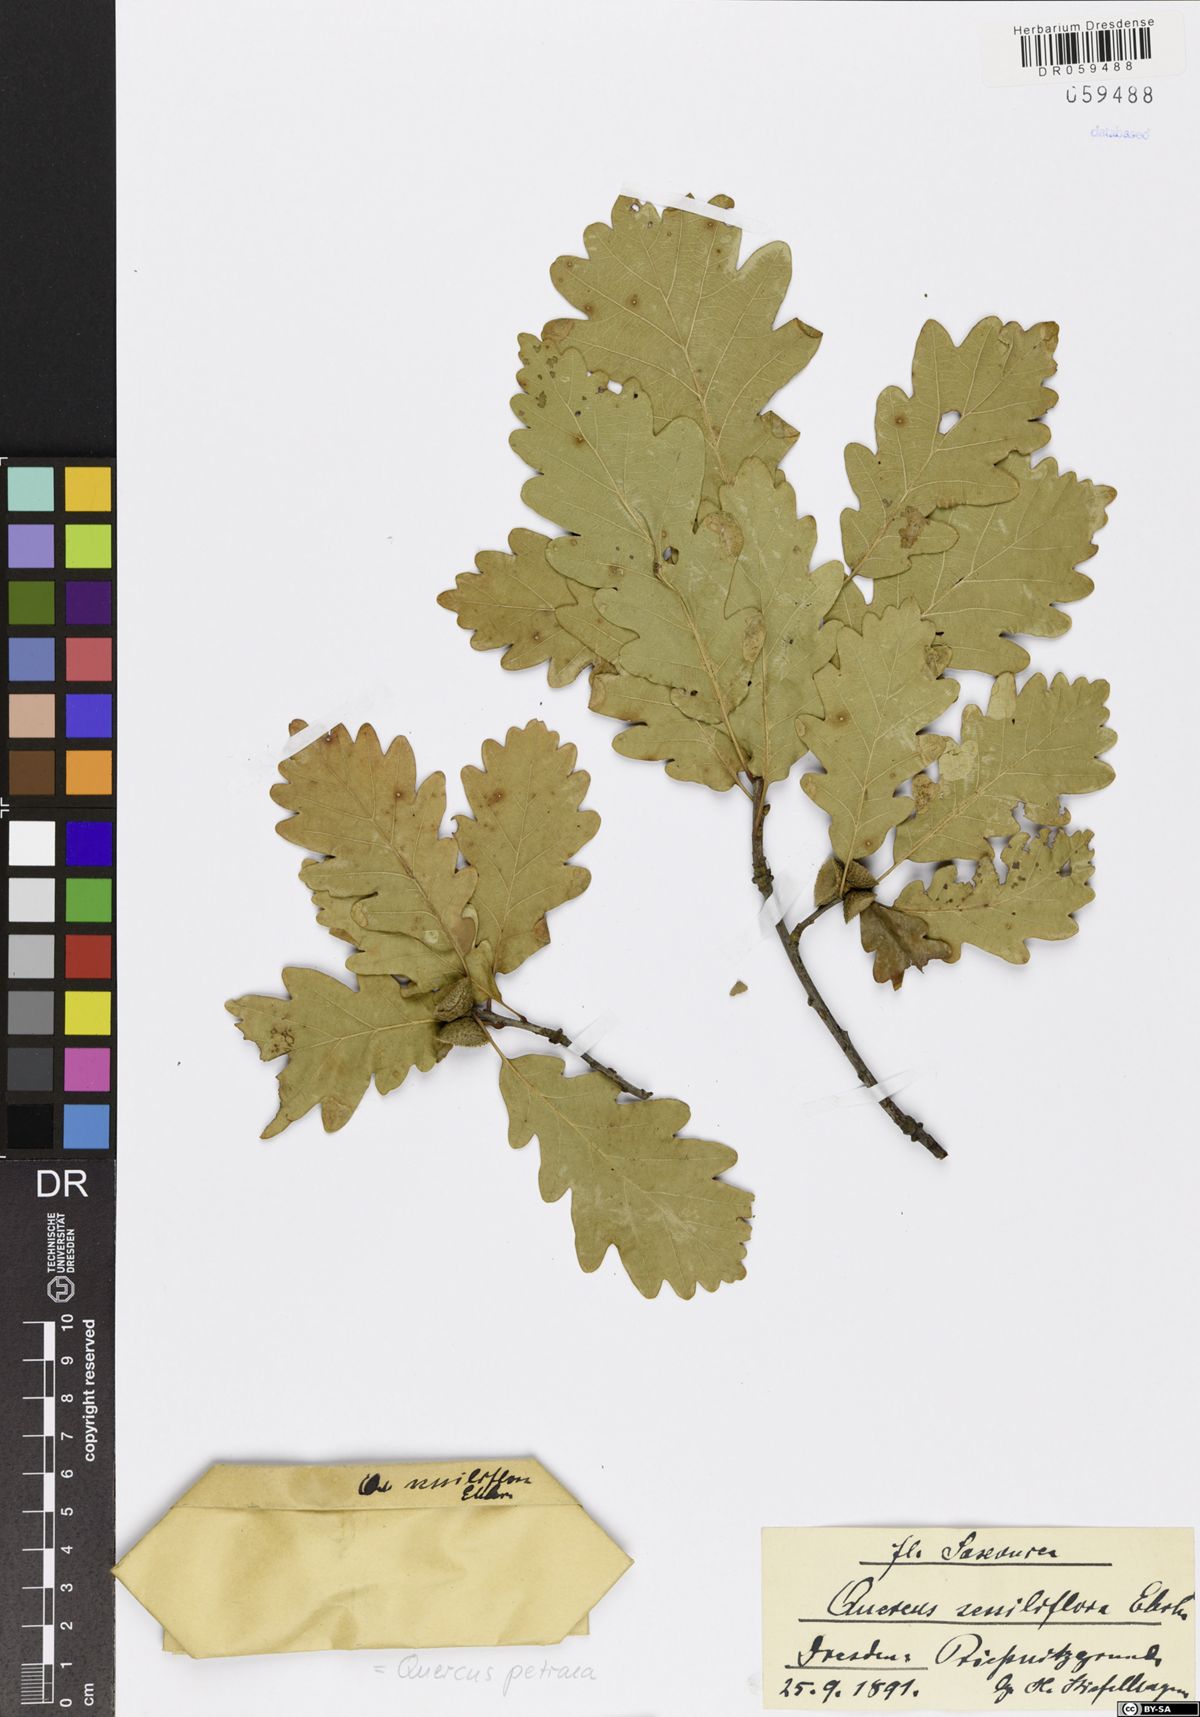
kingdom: Plantae
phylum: Tracheophyta
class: Magnoliopsida
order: Fagales
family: Fagaceae
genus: Quercus
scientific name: Quercus petraea
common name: Sessile oak
